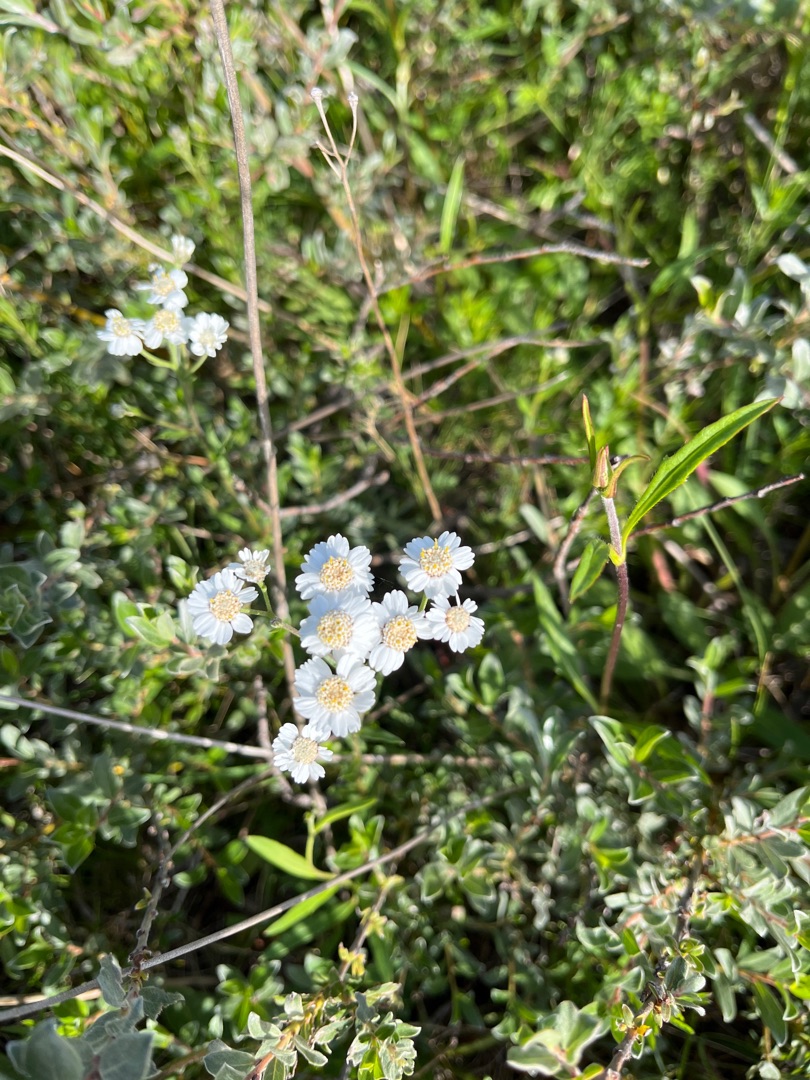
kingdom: Plantae
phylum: Tracheophyta
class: Magnoliopsida
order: Asterales
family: Asteraceae
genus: Achillea
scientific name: Achillea ptarmica
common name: Nyse-røllike
